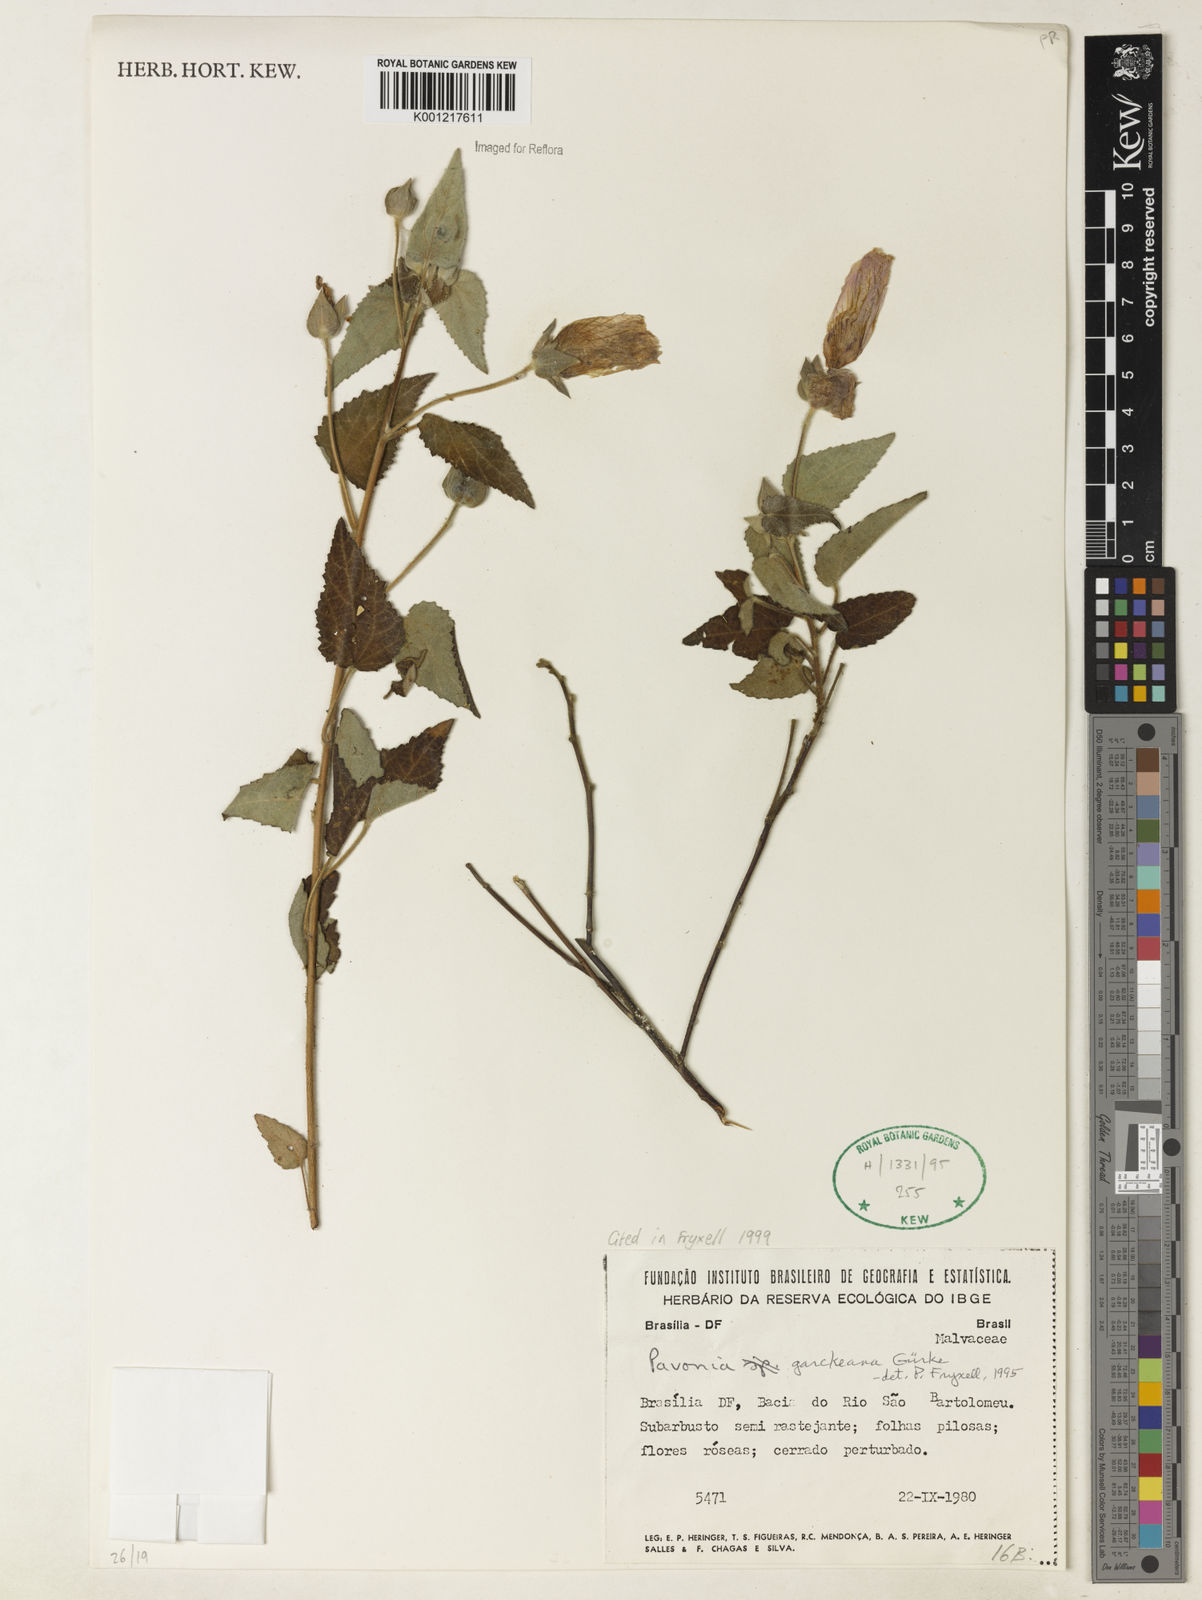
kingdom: Plantae
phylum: Tracheophyta
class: Magnoliopsida
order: Malvales
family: Malvaceae
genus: Pavonia
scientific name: Pavonia
